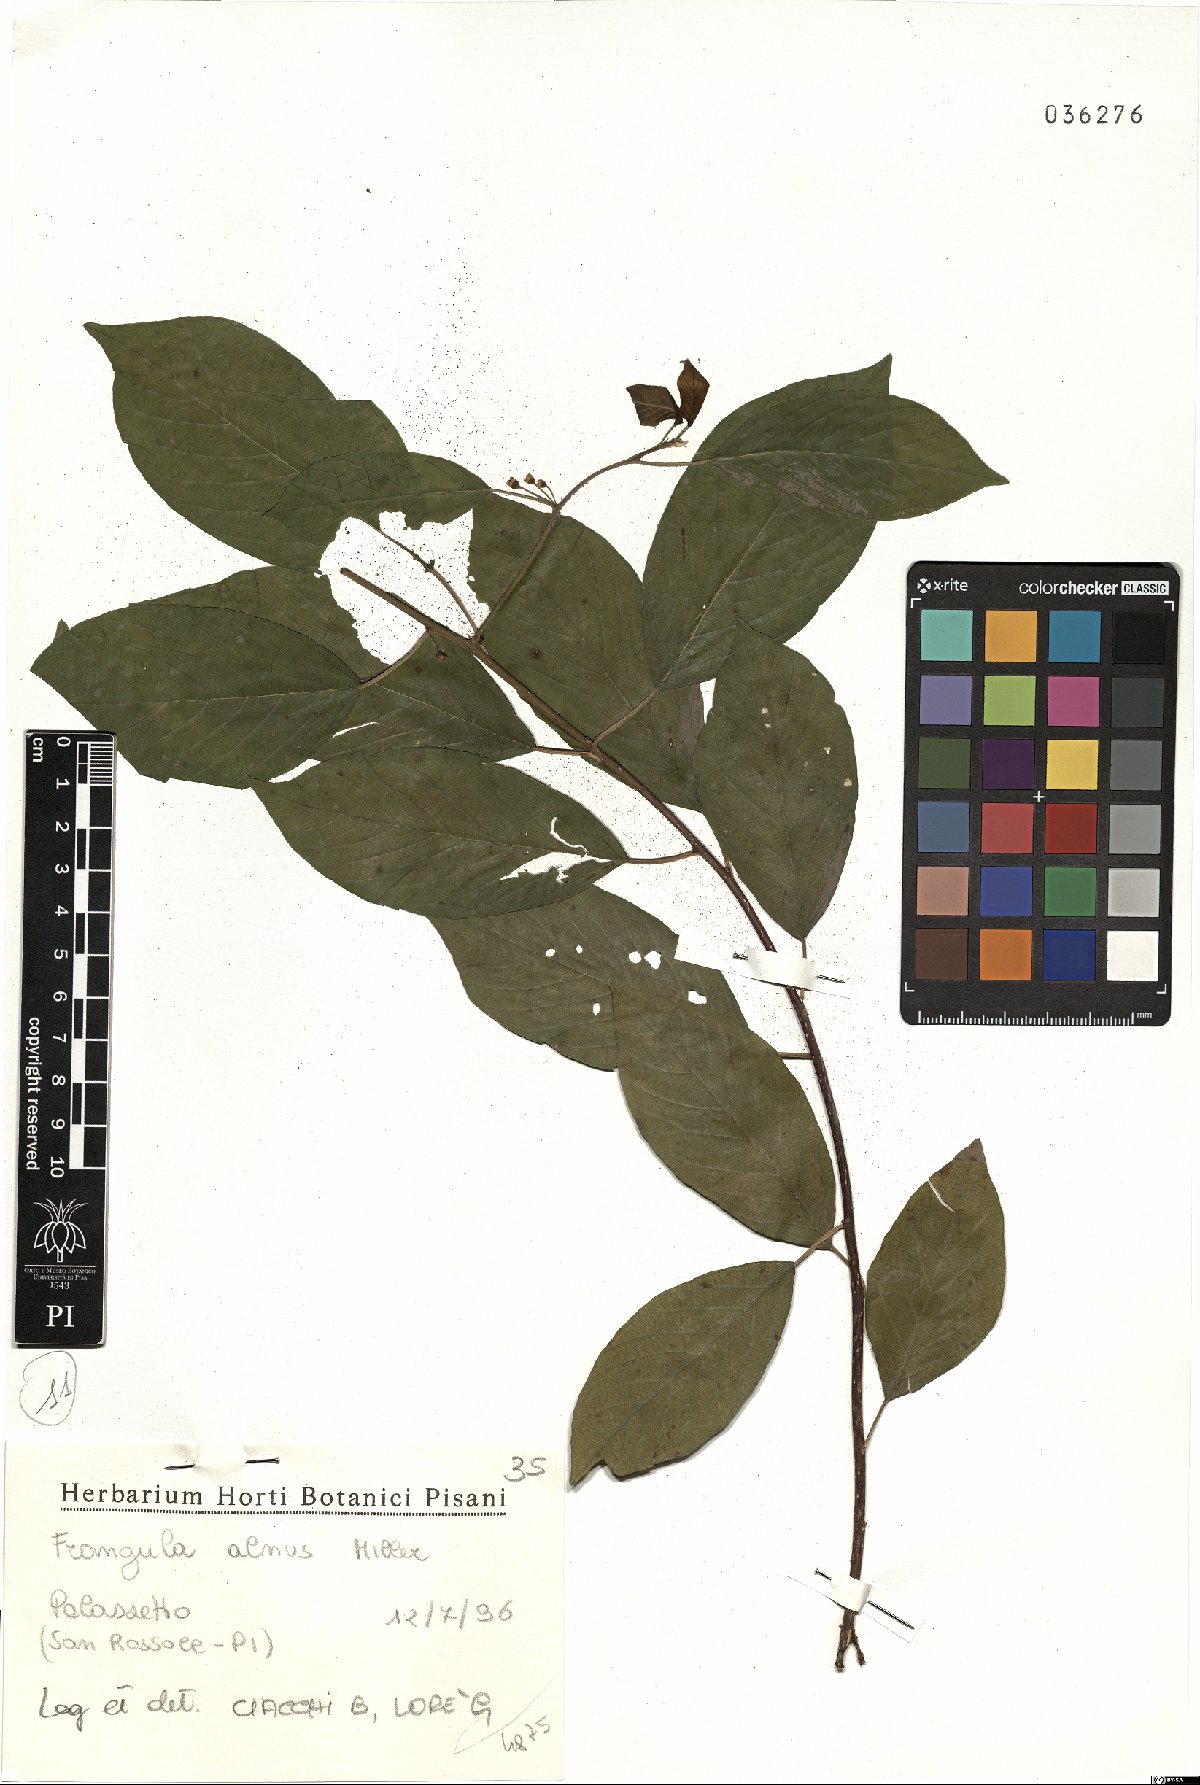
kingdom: Plantae
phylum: Tracheophyta
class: Magnoliopsida
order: Rosales
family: Rhamnaceae
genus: Frangula
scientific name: Frangula alnus
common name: Alder buckthorn
